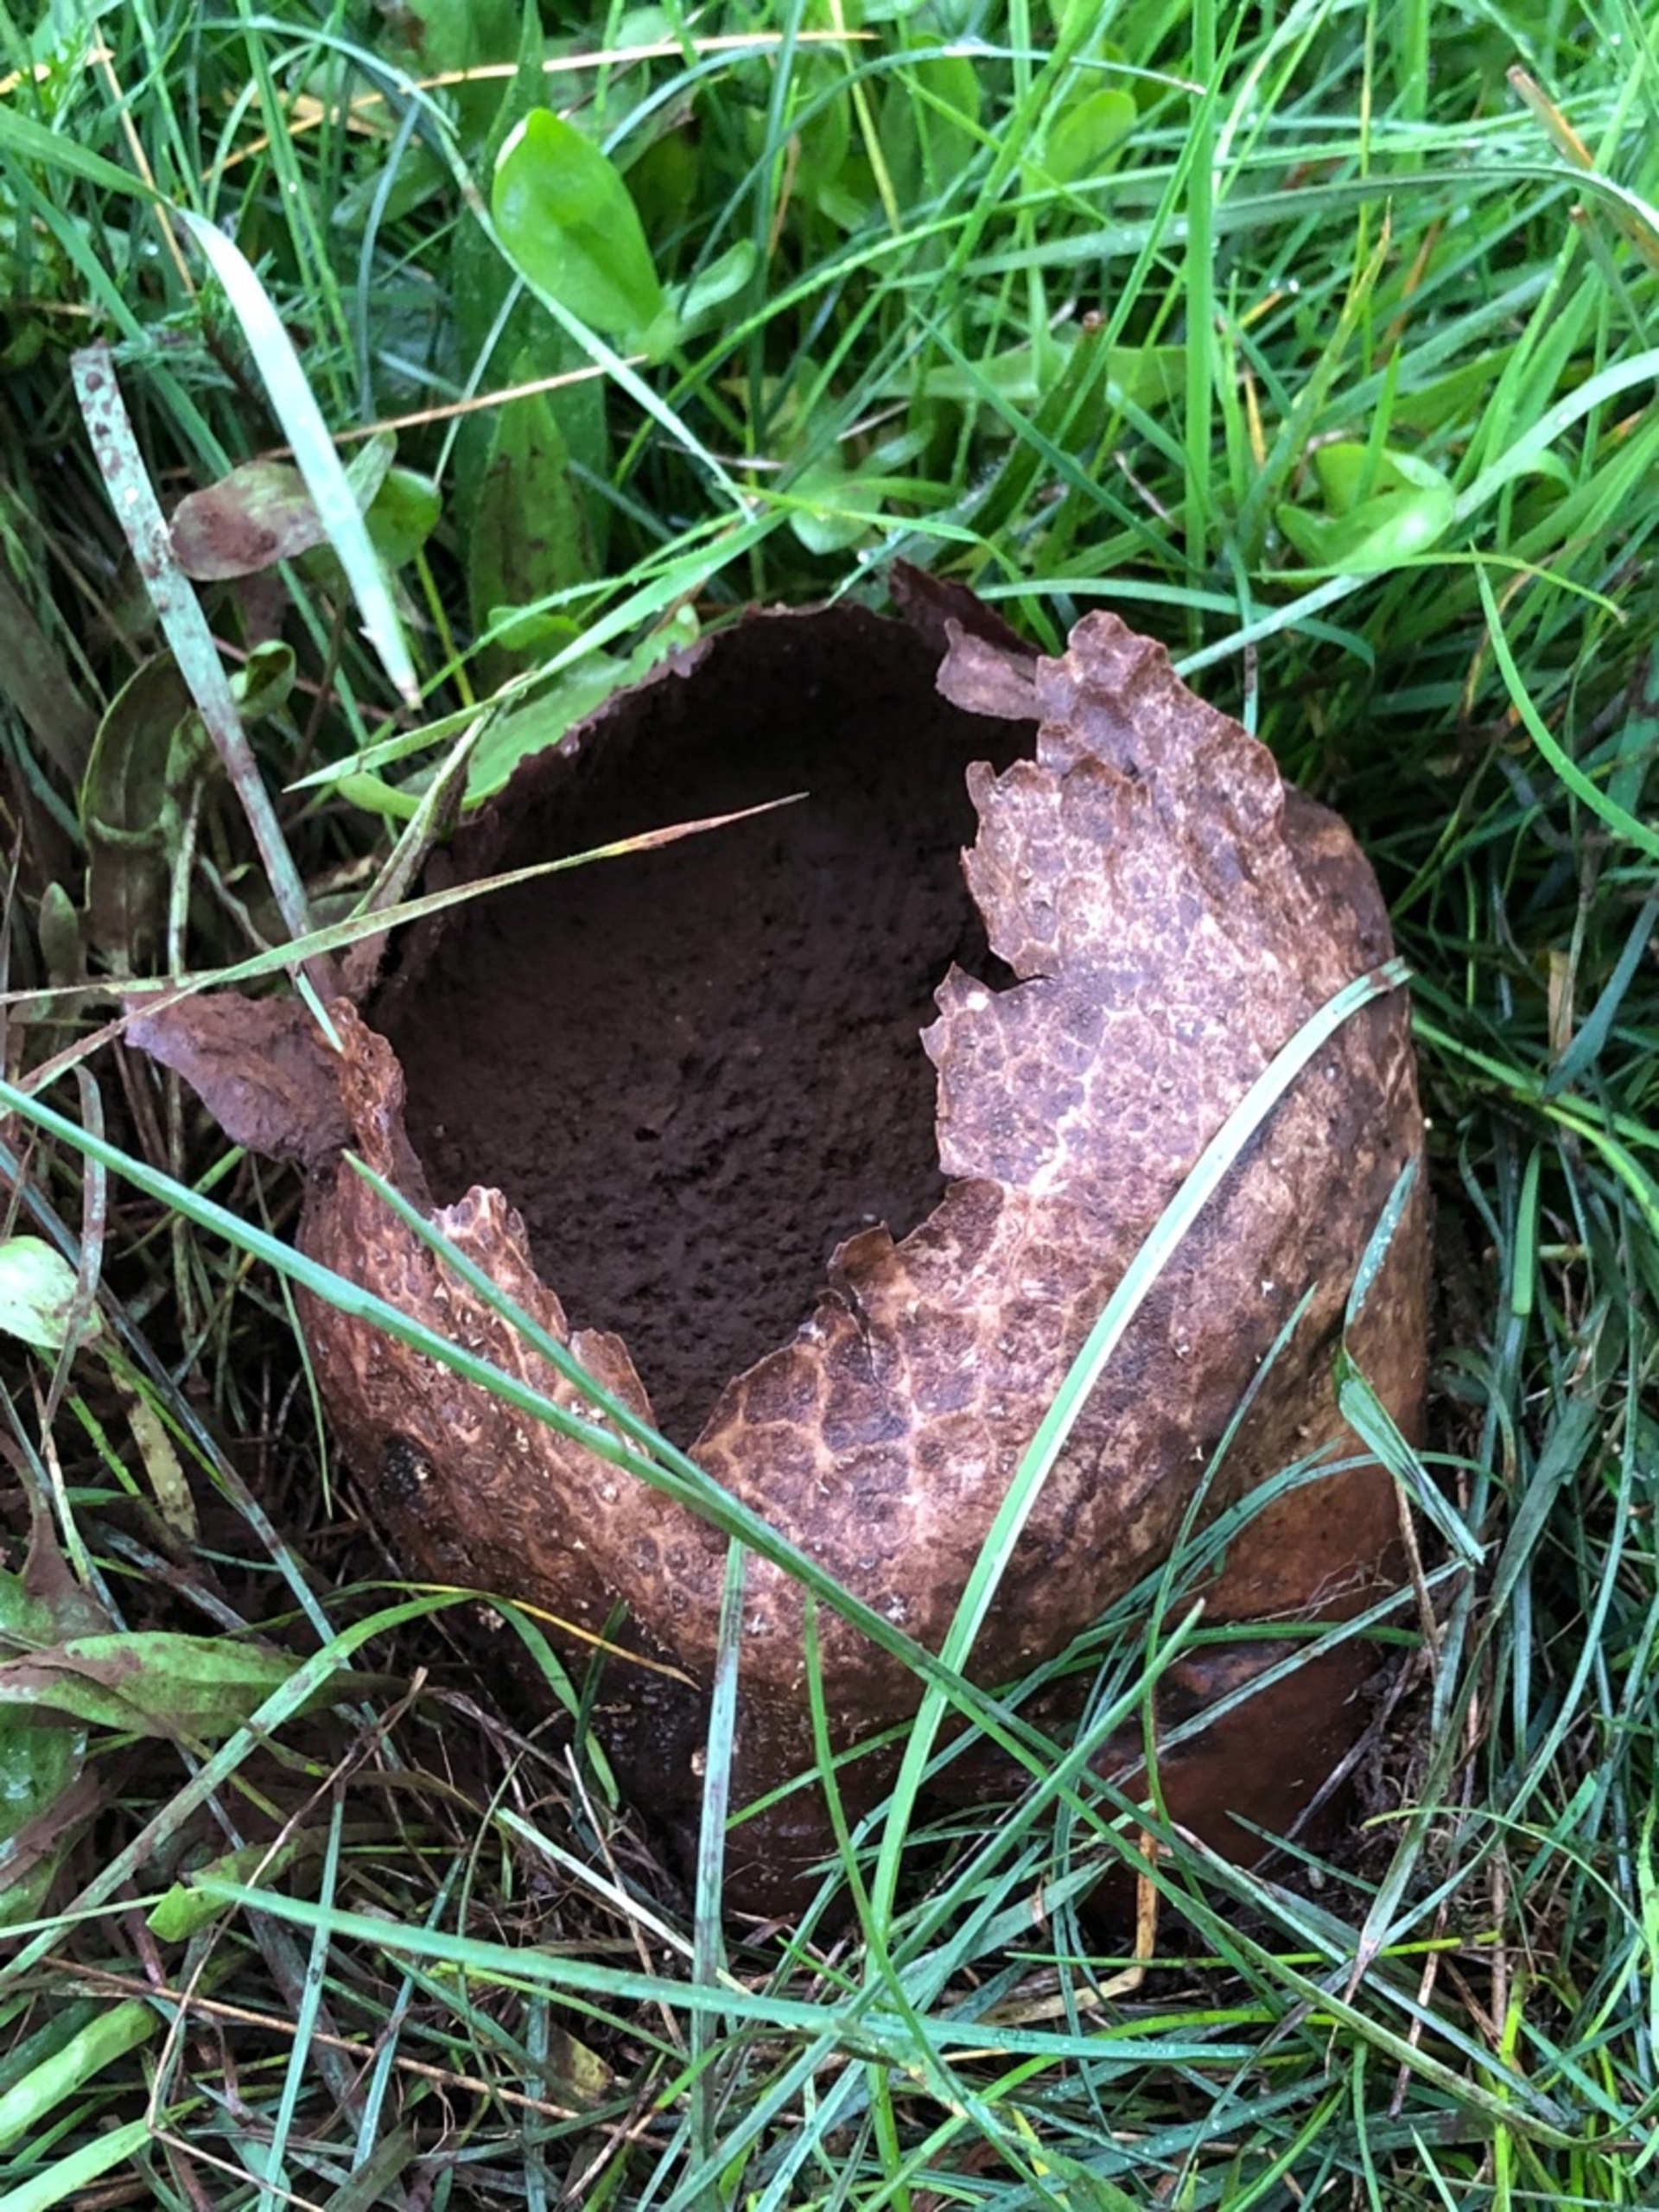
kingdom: Fungi
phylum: Basidiomycota
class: Agaricomycetes
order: Agaricales
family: Lycoperdaceae
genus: Bovistella
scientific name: Bovistella utriformis
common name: Skællet støvbold
